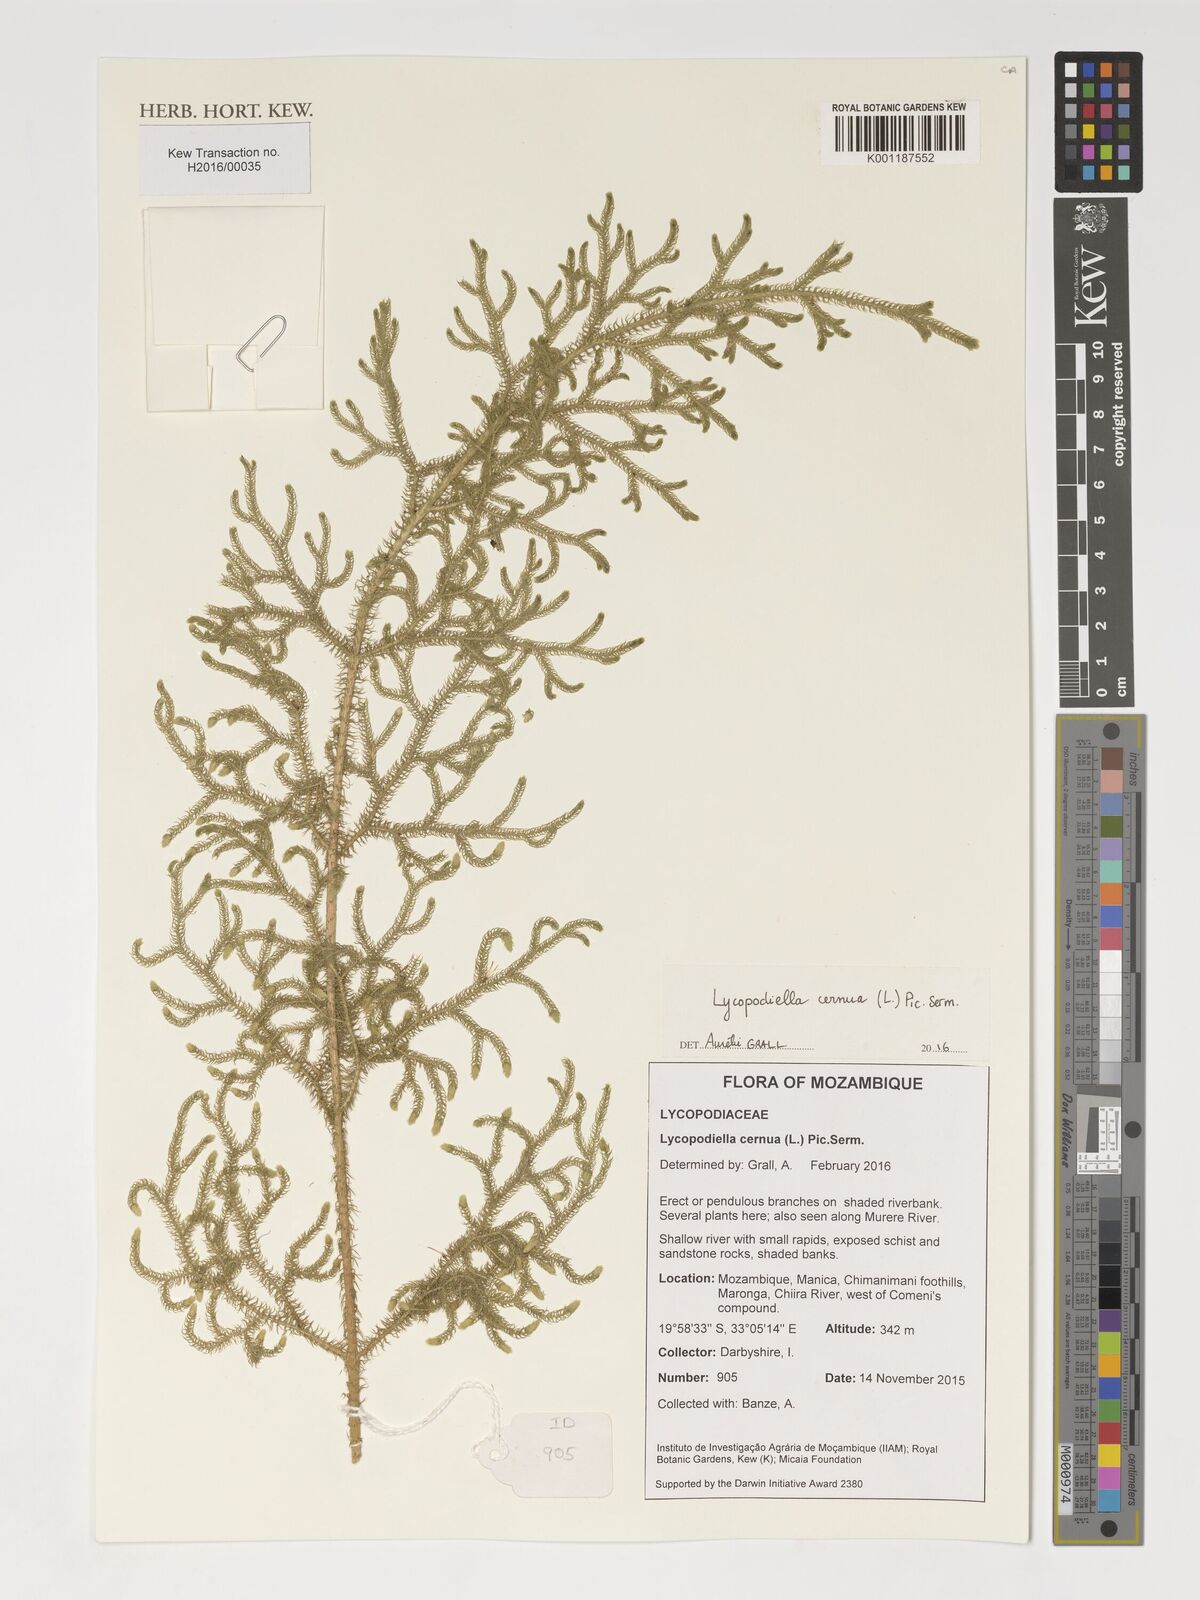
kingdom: Plantae
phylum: Tracheophyta
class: Lycopodiopsida
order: Lycopodiales
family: Lycopodiaceae
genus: Palhinhaea
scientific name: Palhinhaea cernua
